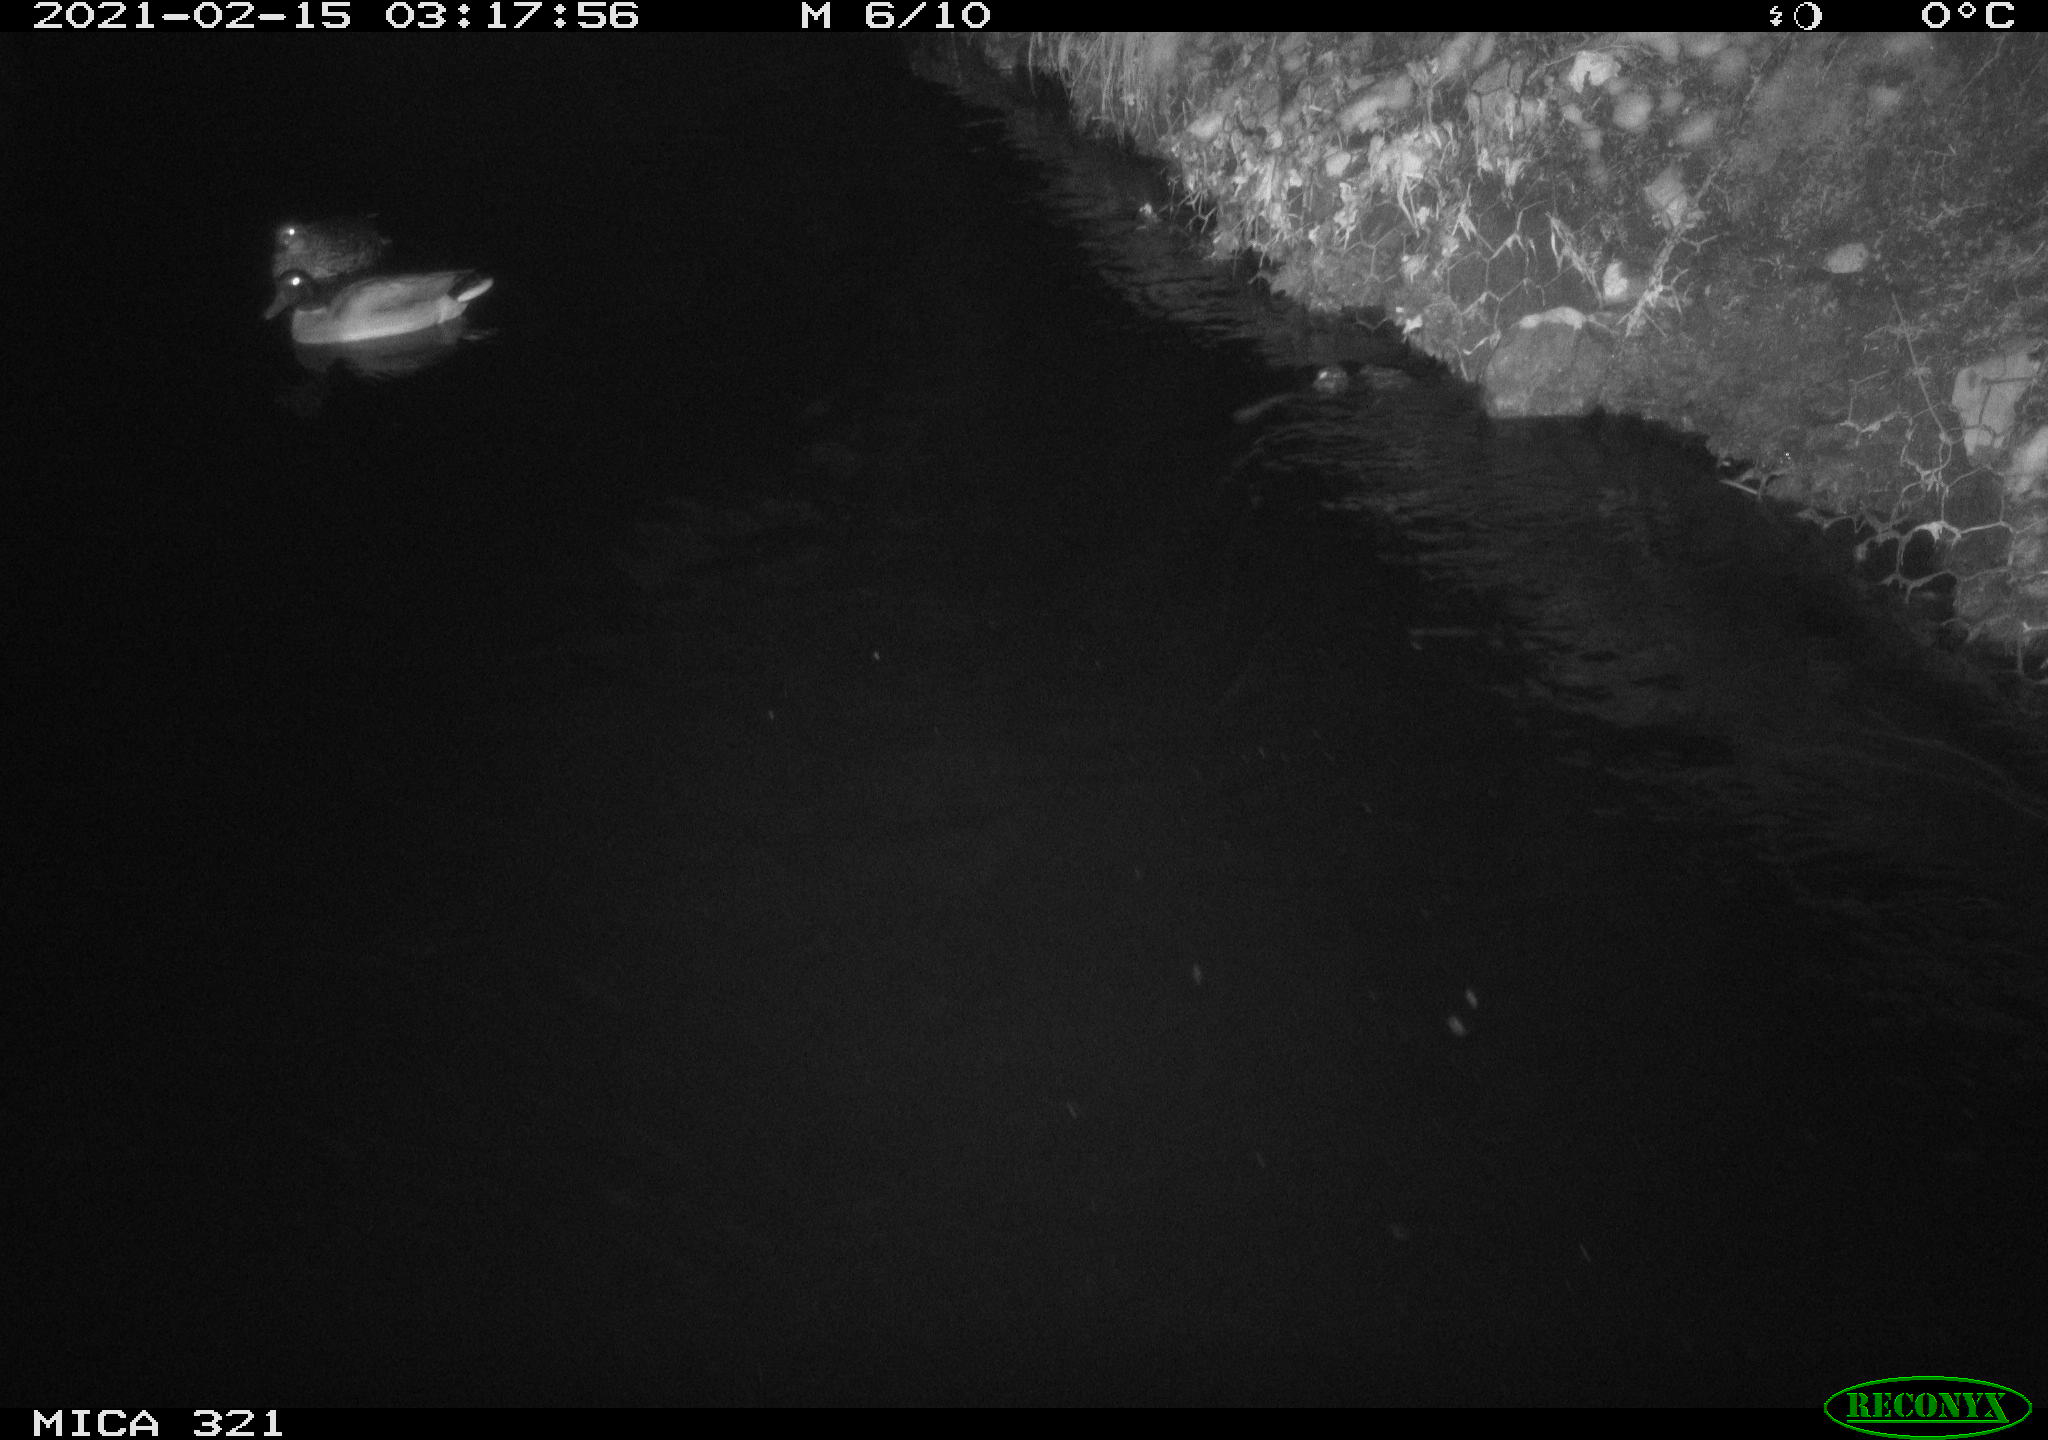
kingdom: Animalia
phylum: Chordata
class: Aves
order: Anseriformes
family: Anatidae
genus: Anas
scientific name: Anas platyrhynchos
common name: Mallard
